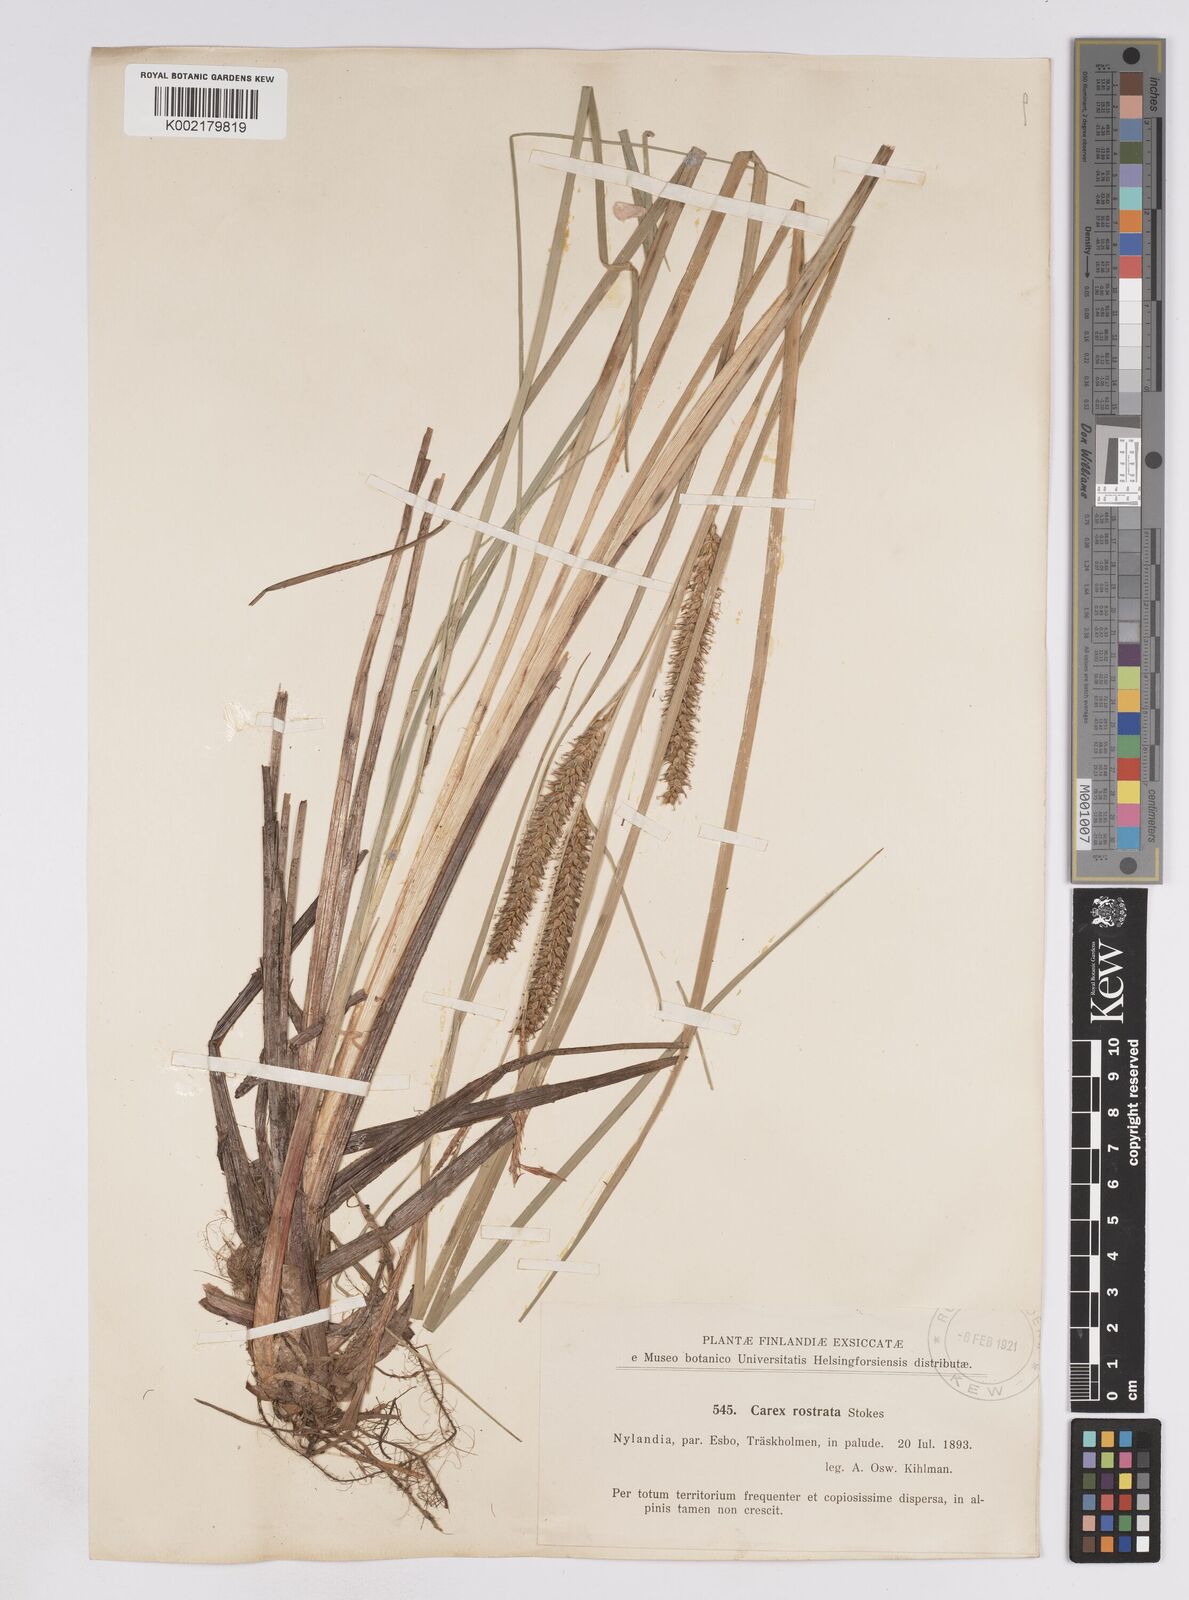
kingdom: Plantae
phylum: Tracheophyta
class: Liliopsida
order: Poales
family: Cyperaceae
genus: Carex
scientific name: Carex rostrata
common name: Bottle sedge
